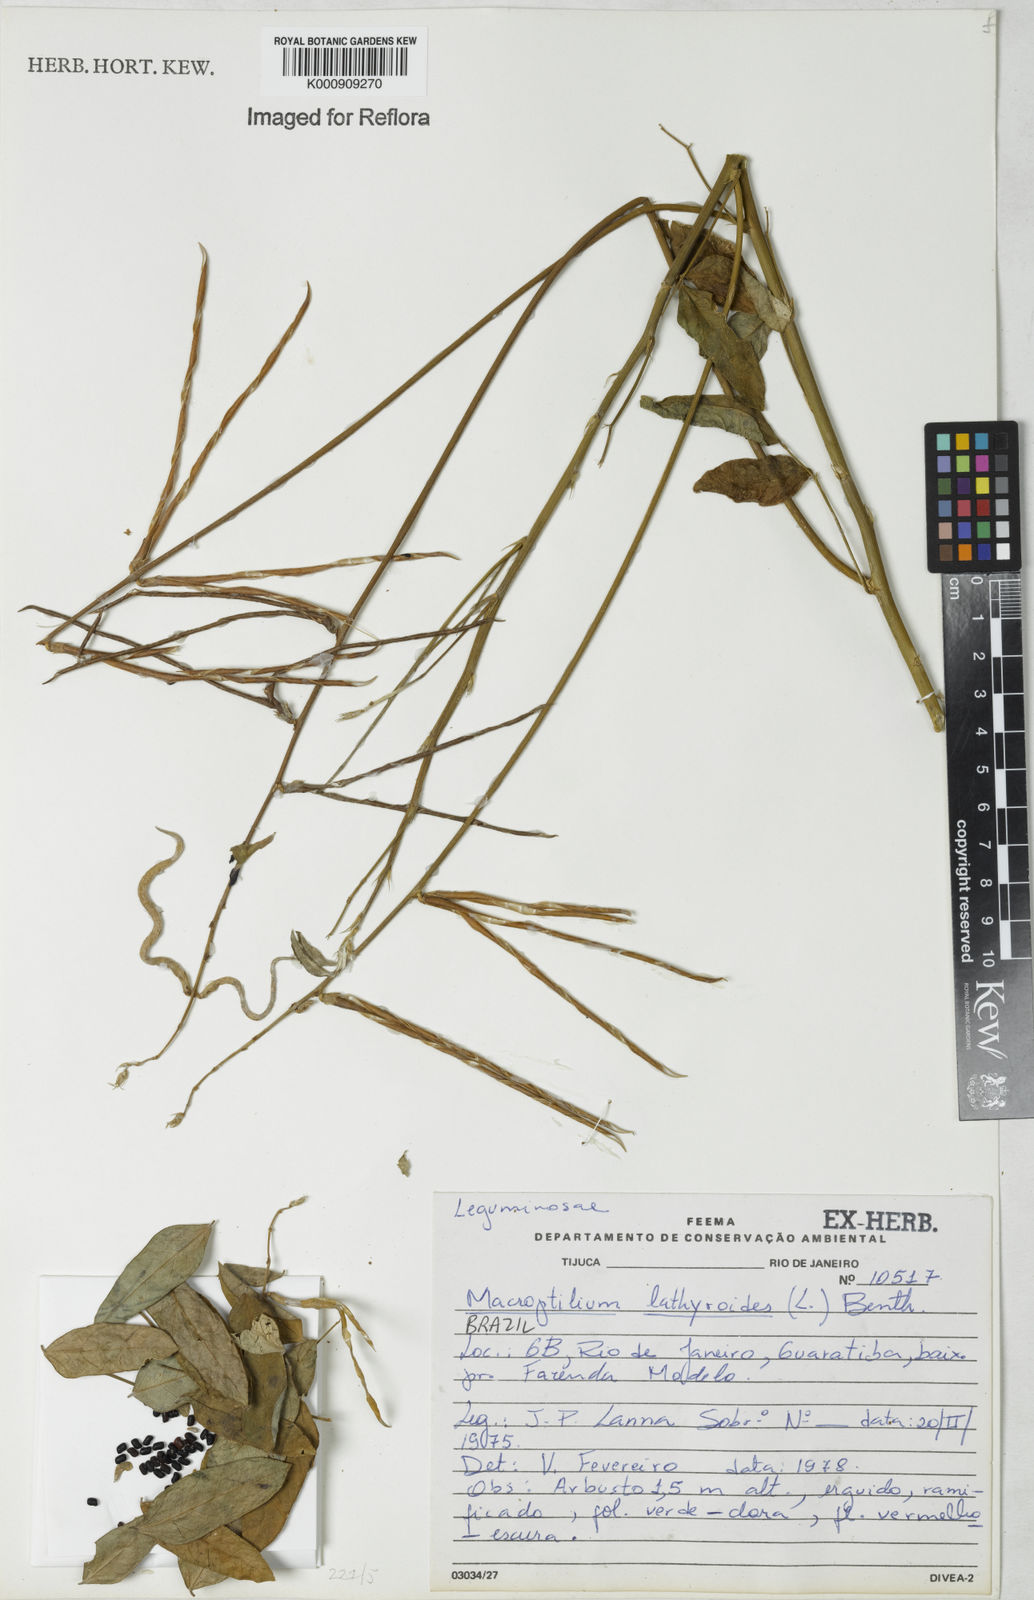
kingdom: Plantae
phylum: Tracheophyta
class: Magnoliopsida
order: Fabales
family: Fabaceae
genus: Macroptilium
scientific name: Macroptilium lathyroides
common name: Wild bushbean
